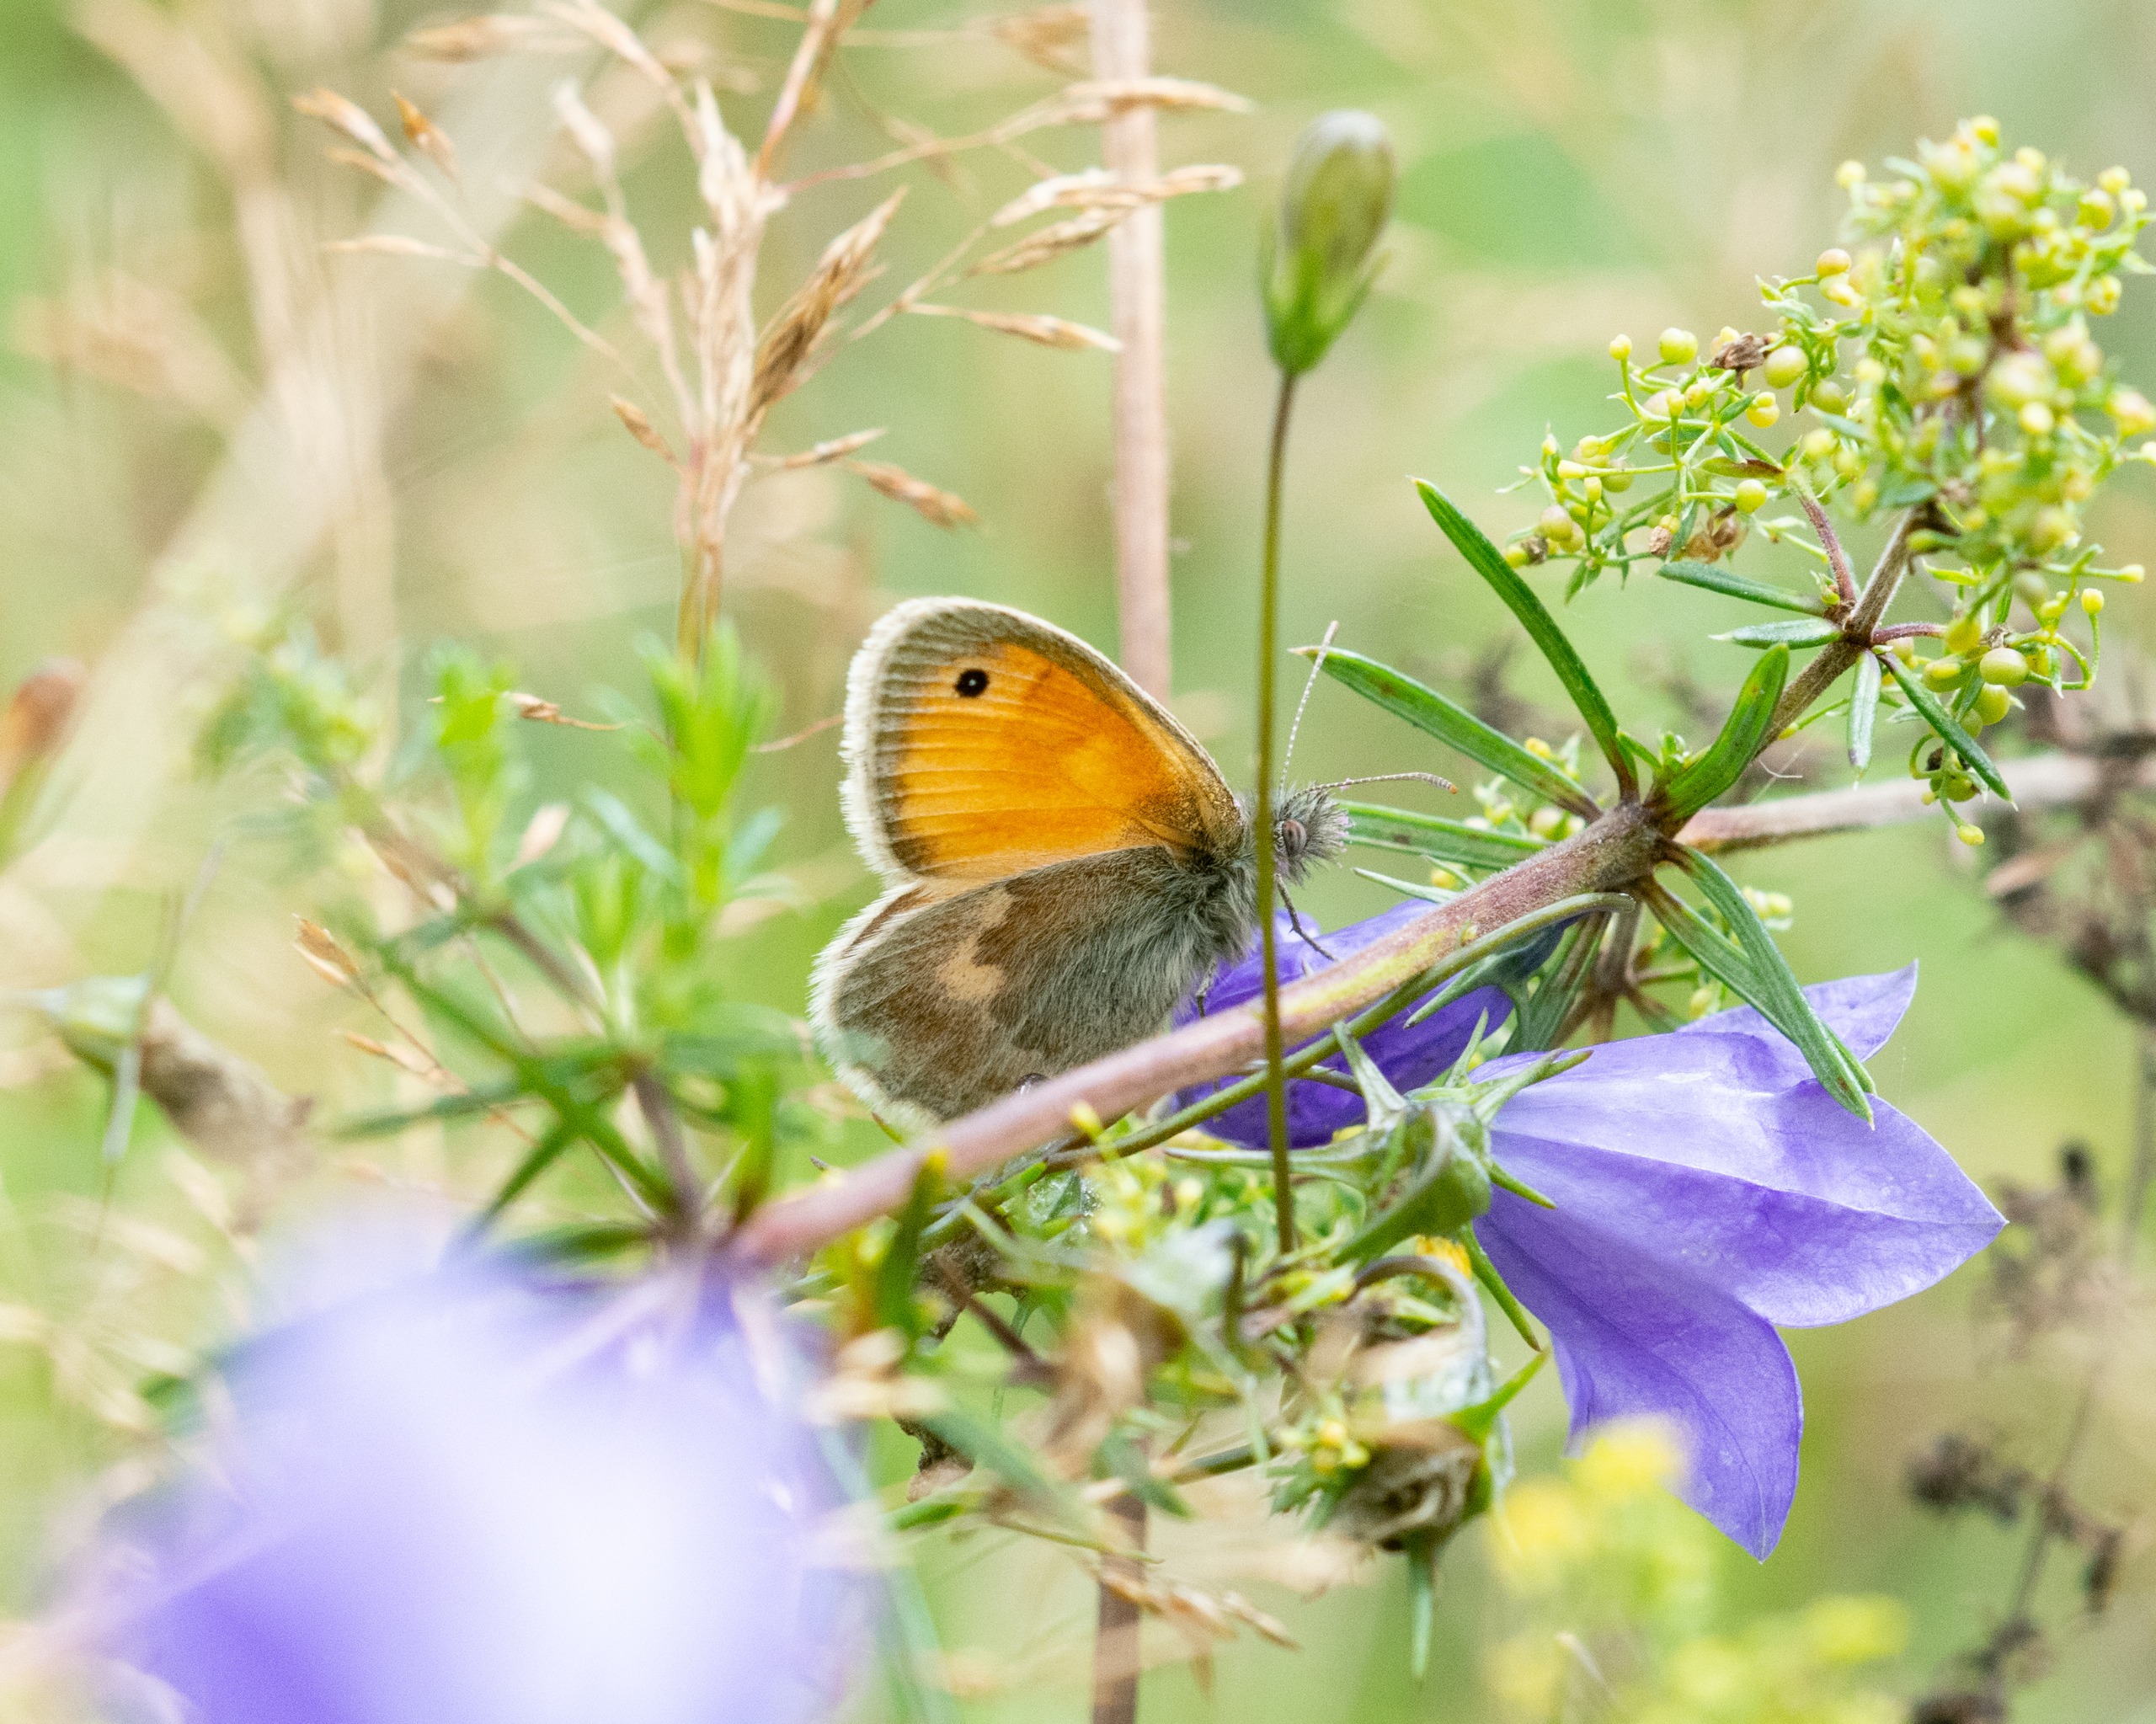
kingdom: Animalia
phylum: Arthropoda
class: Insecta
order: Lepidoptera
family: Nymphalidae
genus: Coenonympha
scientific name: Coenonympha pamphilus
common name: Okkergul randøje
